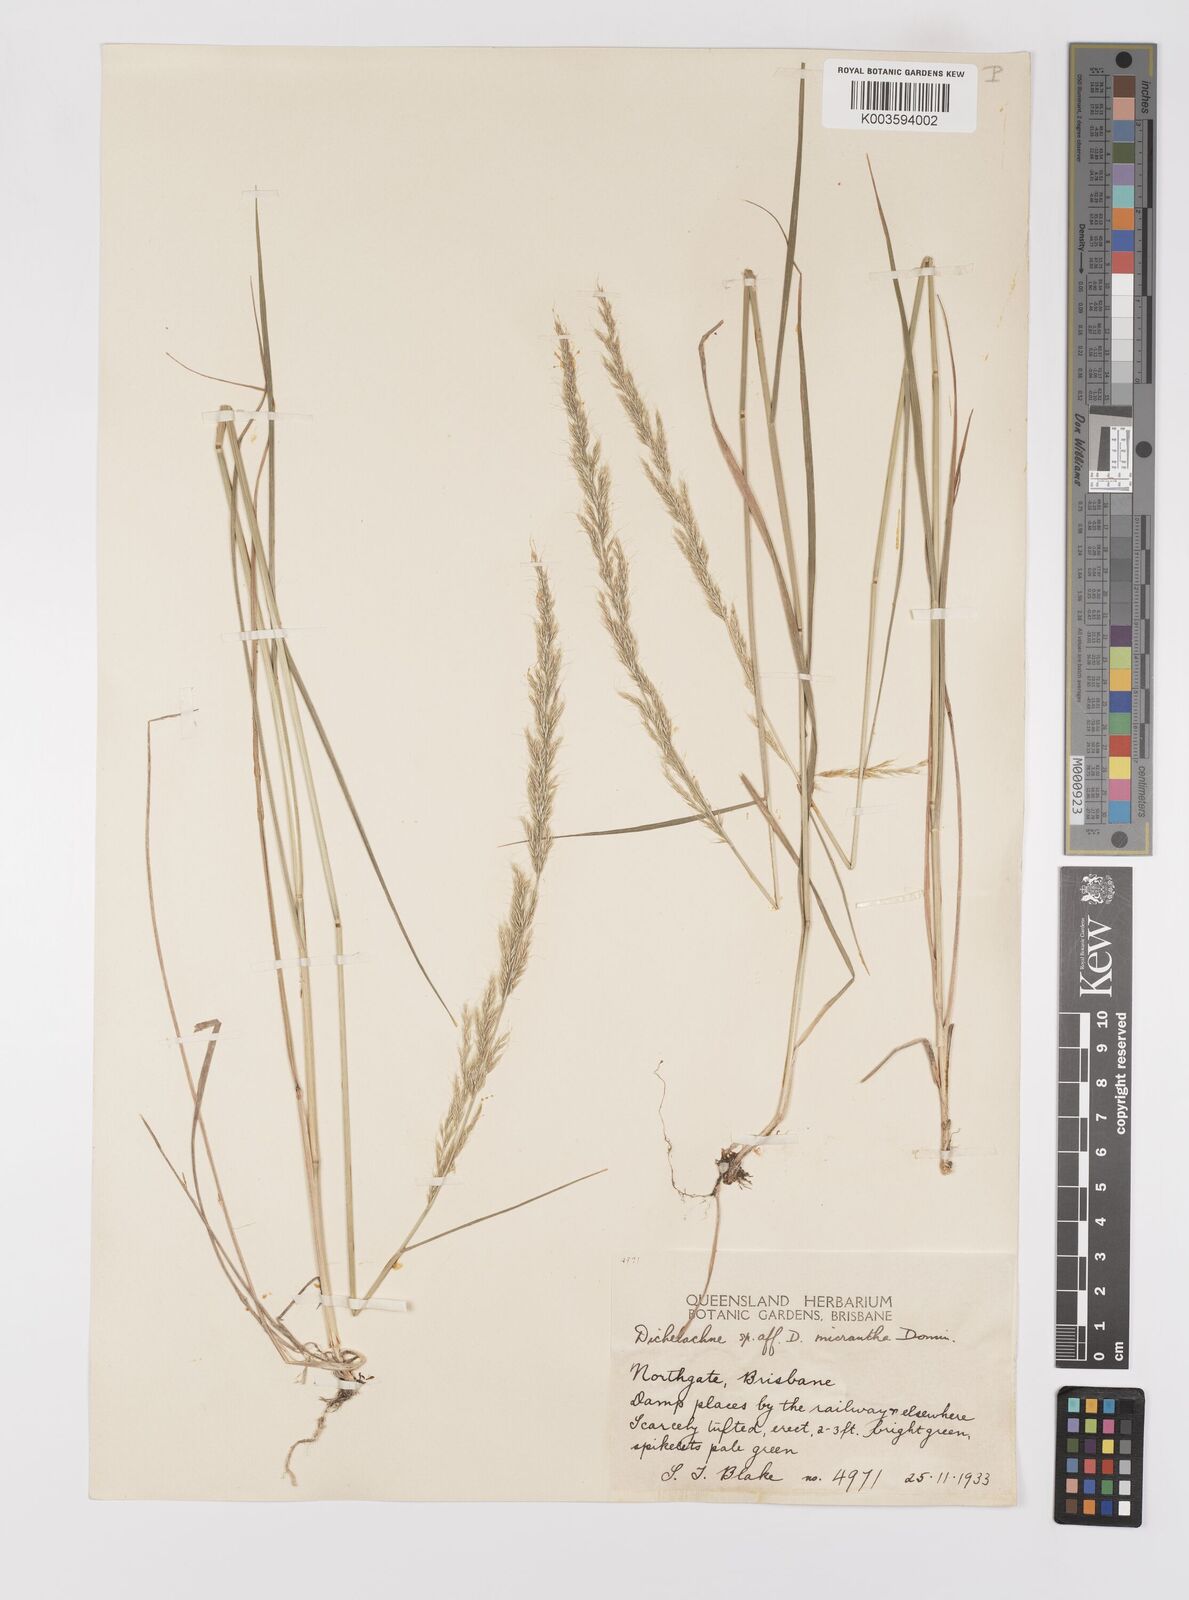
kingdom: Plantae
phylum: Tracheophyta
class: Liliopsida
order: Poales
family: Poaceae
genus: Dichelachne
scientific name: Dichelachne micrantha
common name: Plumegrass
